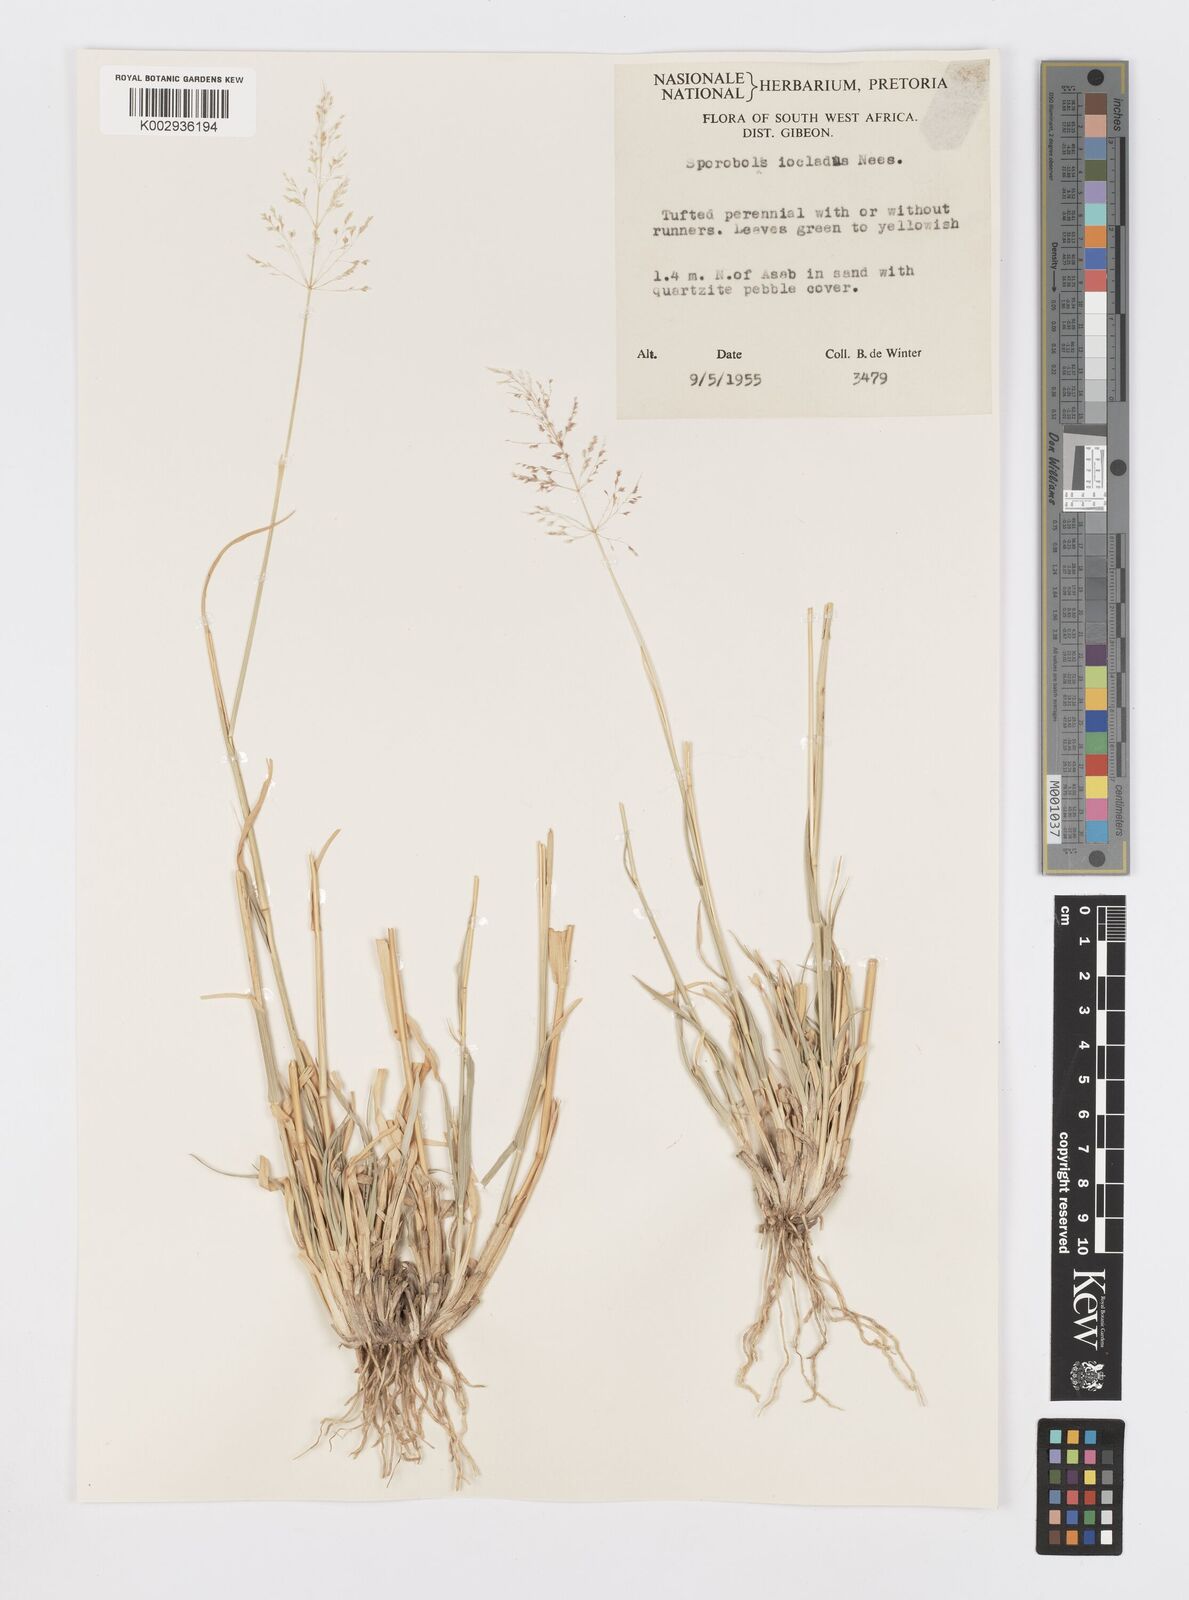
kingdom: Plantae
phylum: Tracheophyta
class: Liliopsida
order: Poales
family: Poaceae
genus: Sporobolus
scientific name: Sporobolus ioclados
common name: Pan dropseed
